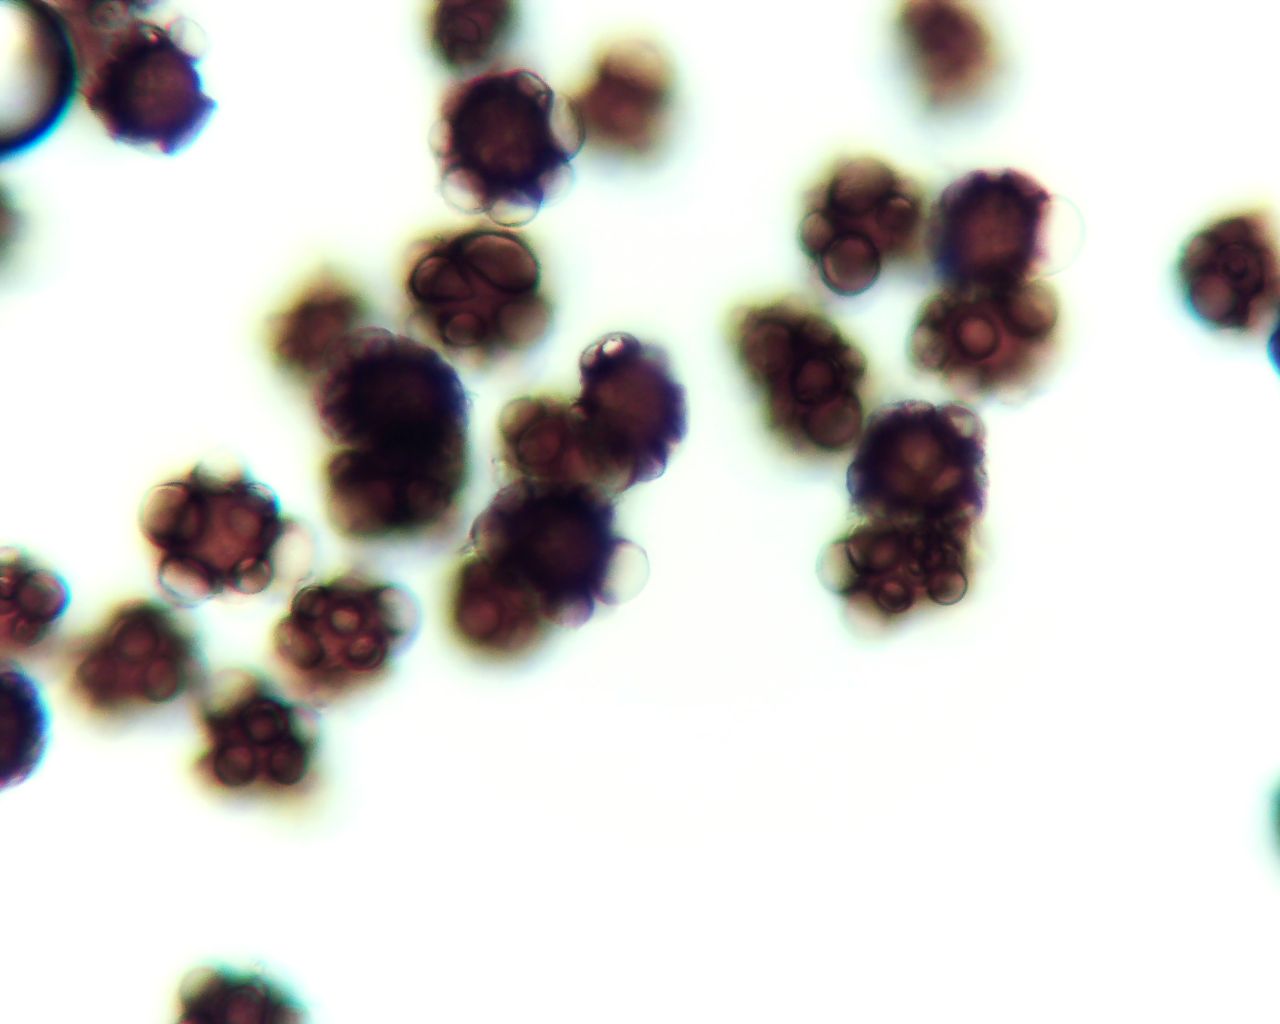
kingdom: Fungi
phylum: Basidiomycota
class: Ustilaginomycetes
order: Urocystidales
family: Urocystidaceae
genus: Urocystis
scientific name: Urocystis eranthidis
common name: erantis-brand
